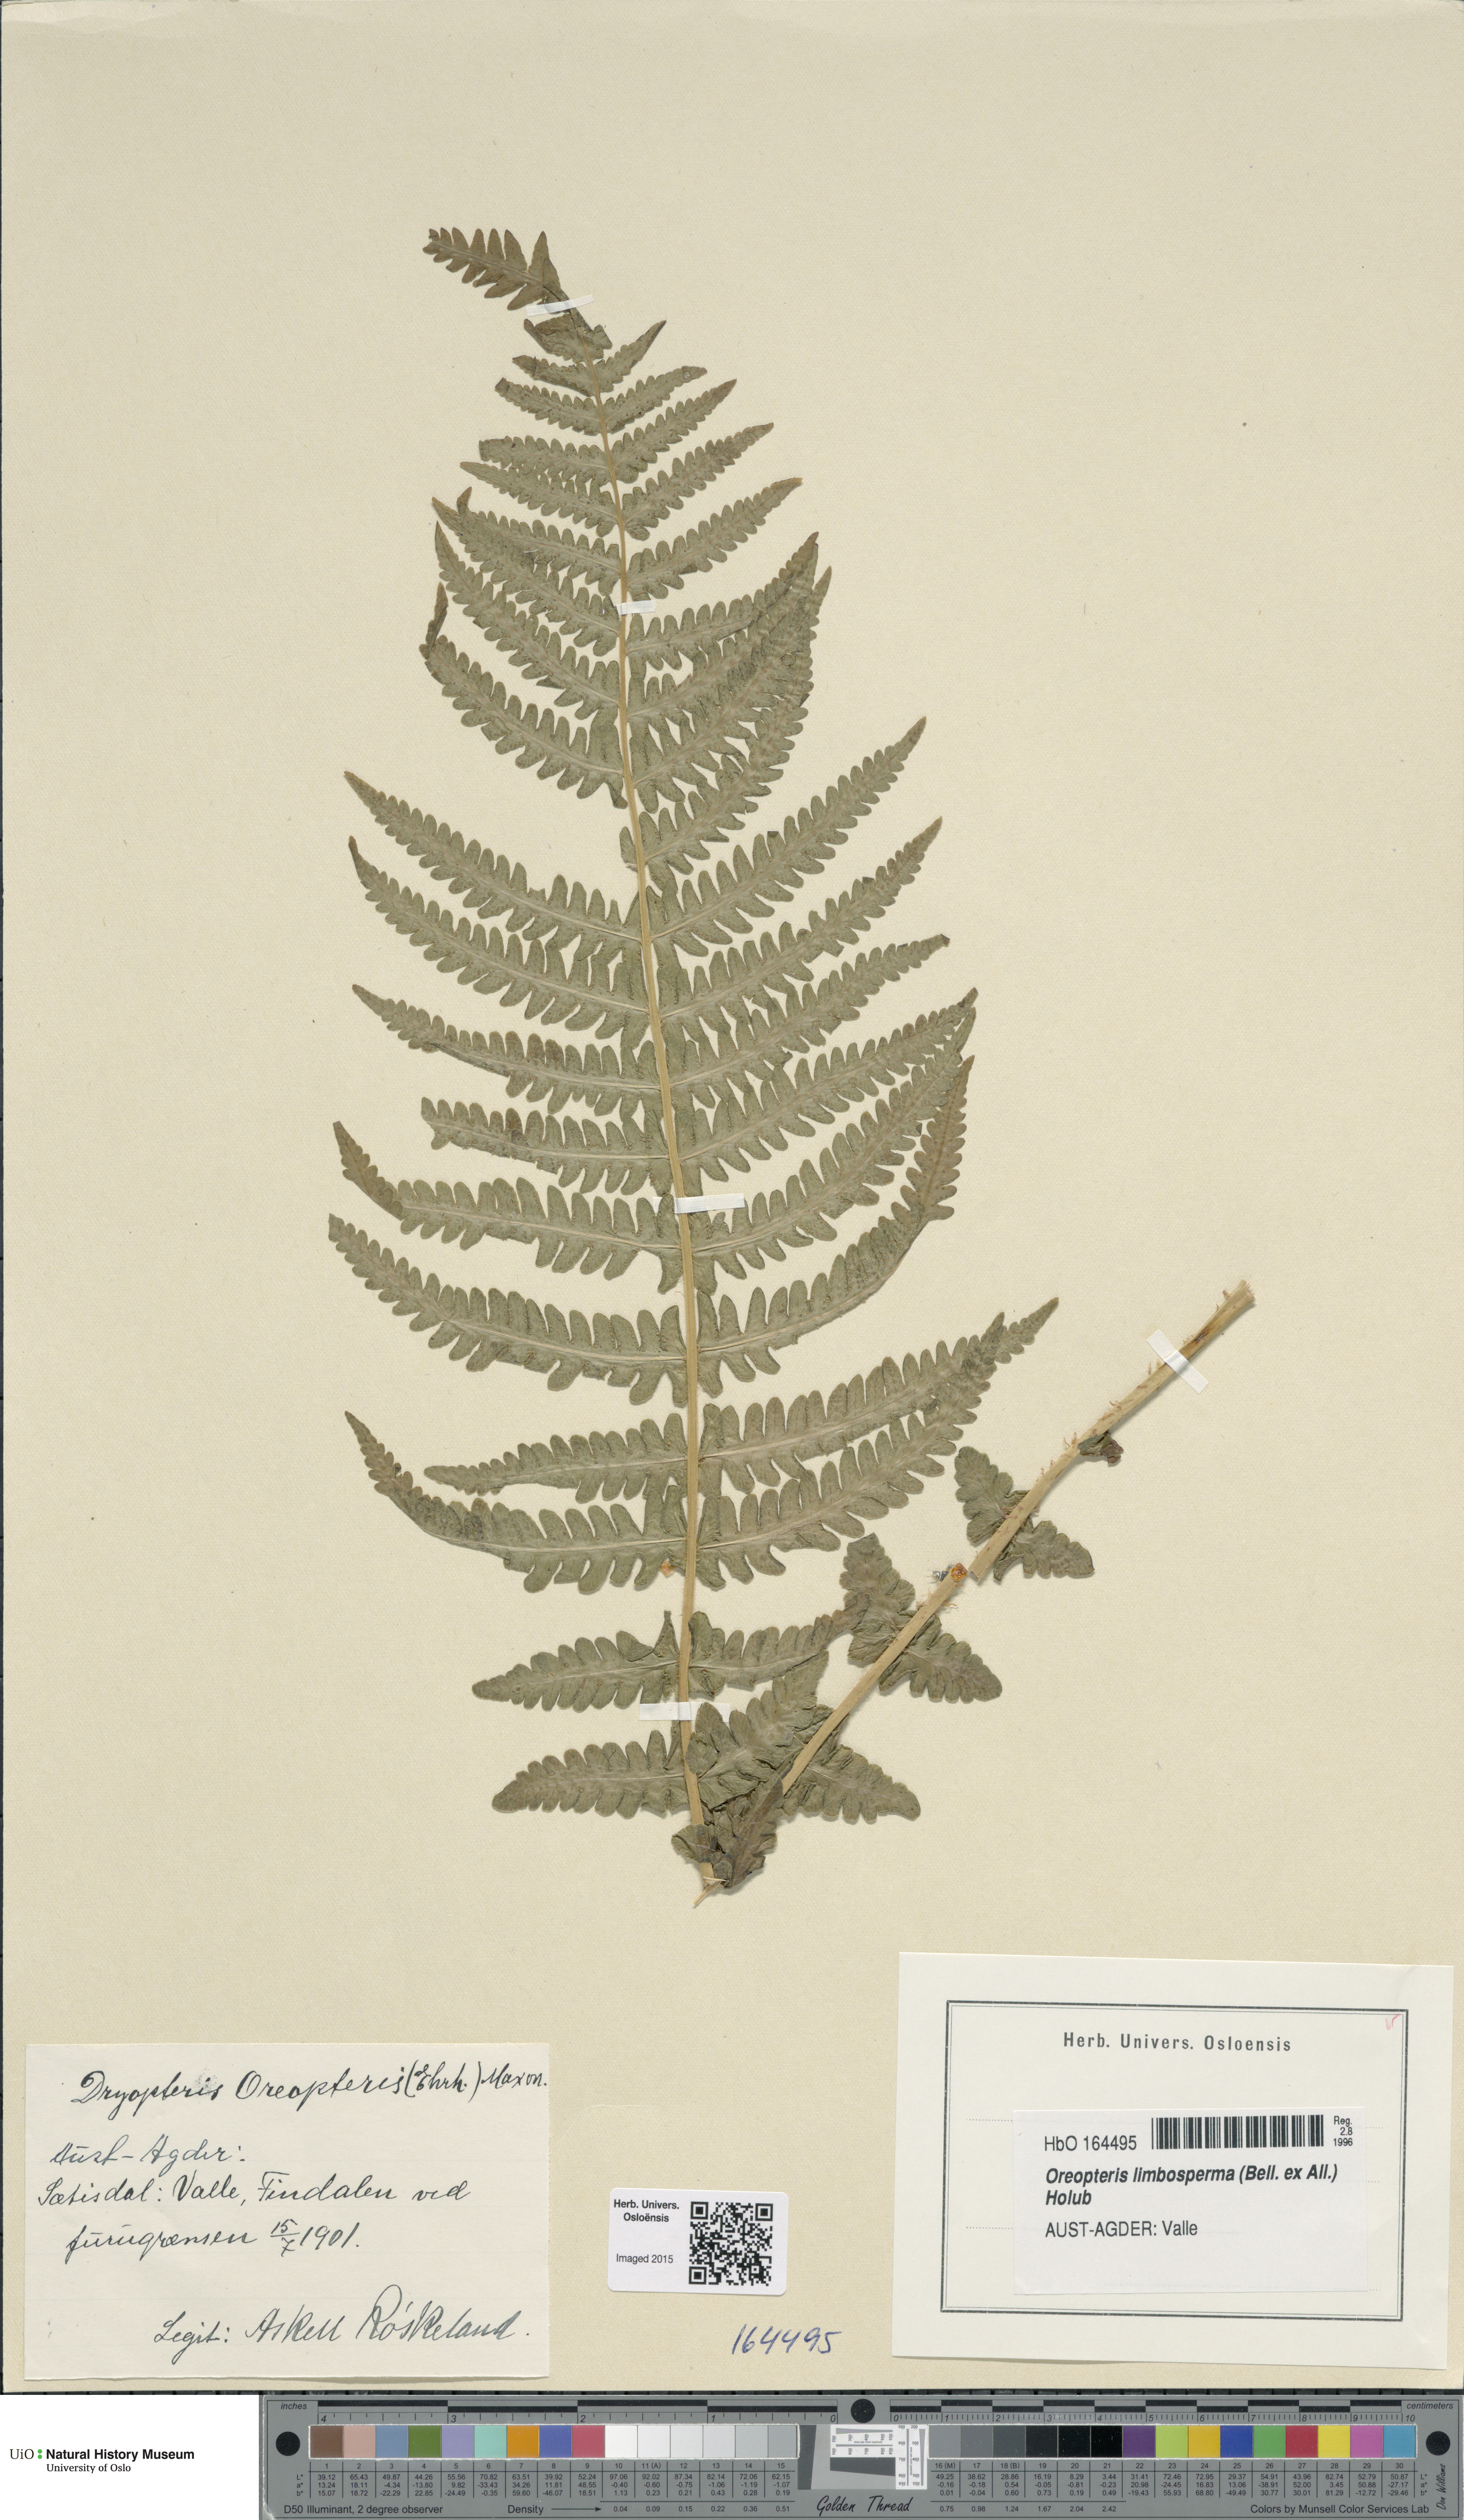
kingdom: Plantae
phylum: Tracheophyta
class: Polypodiopsida
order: Polypodiales
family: Thelypteridaceae
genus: Oreopteris
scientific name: Oreopteris limbosperma
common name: Lemon-scented fern
